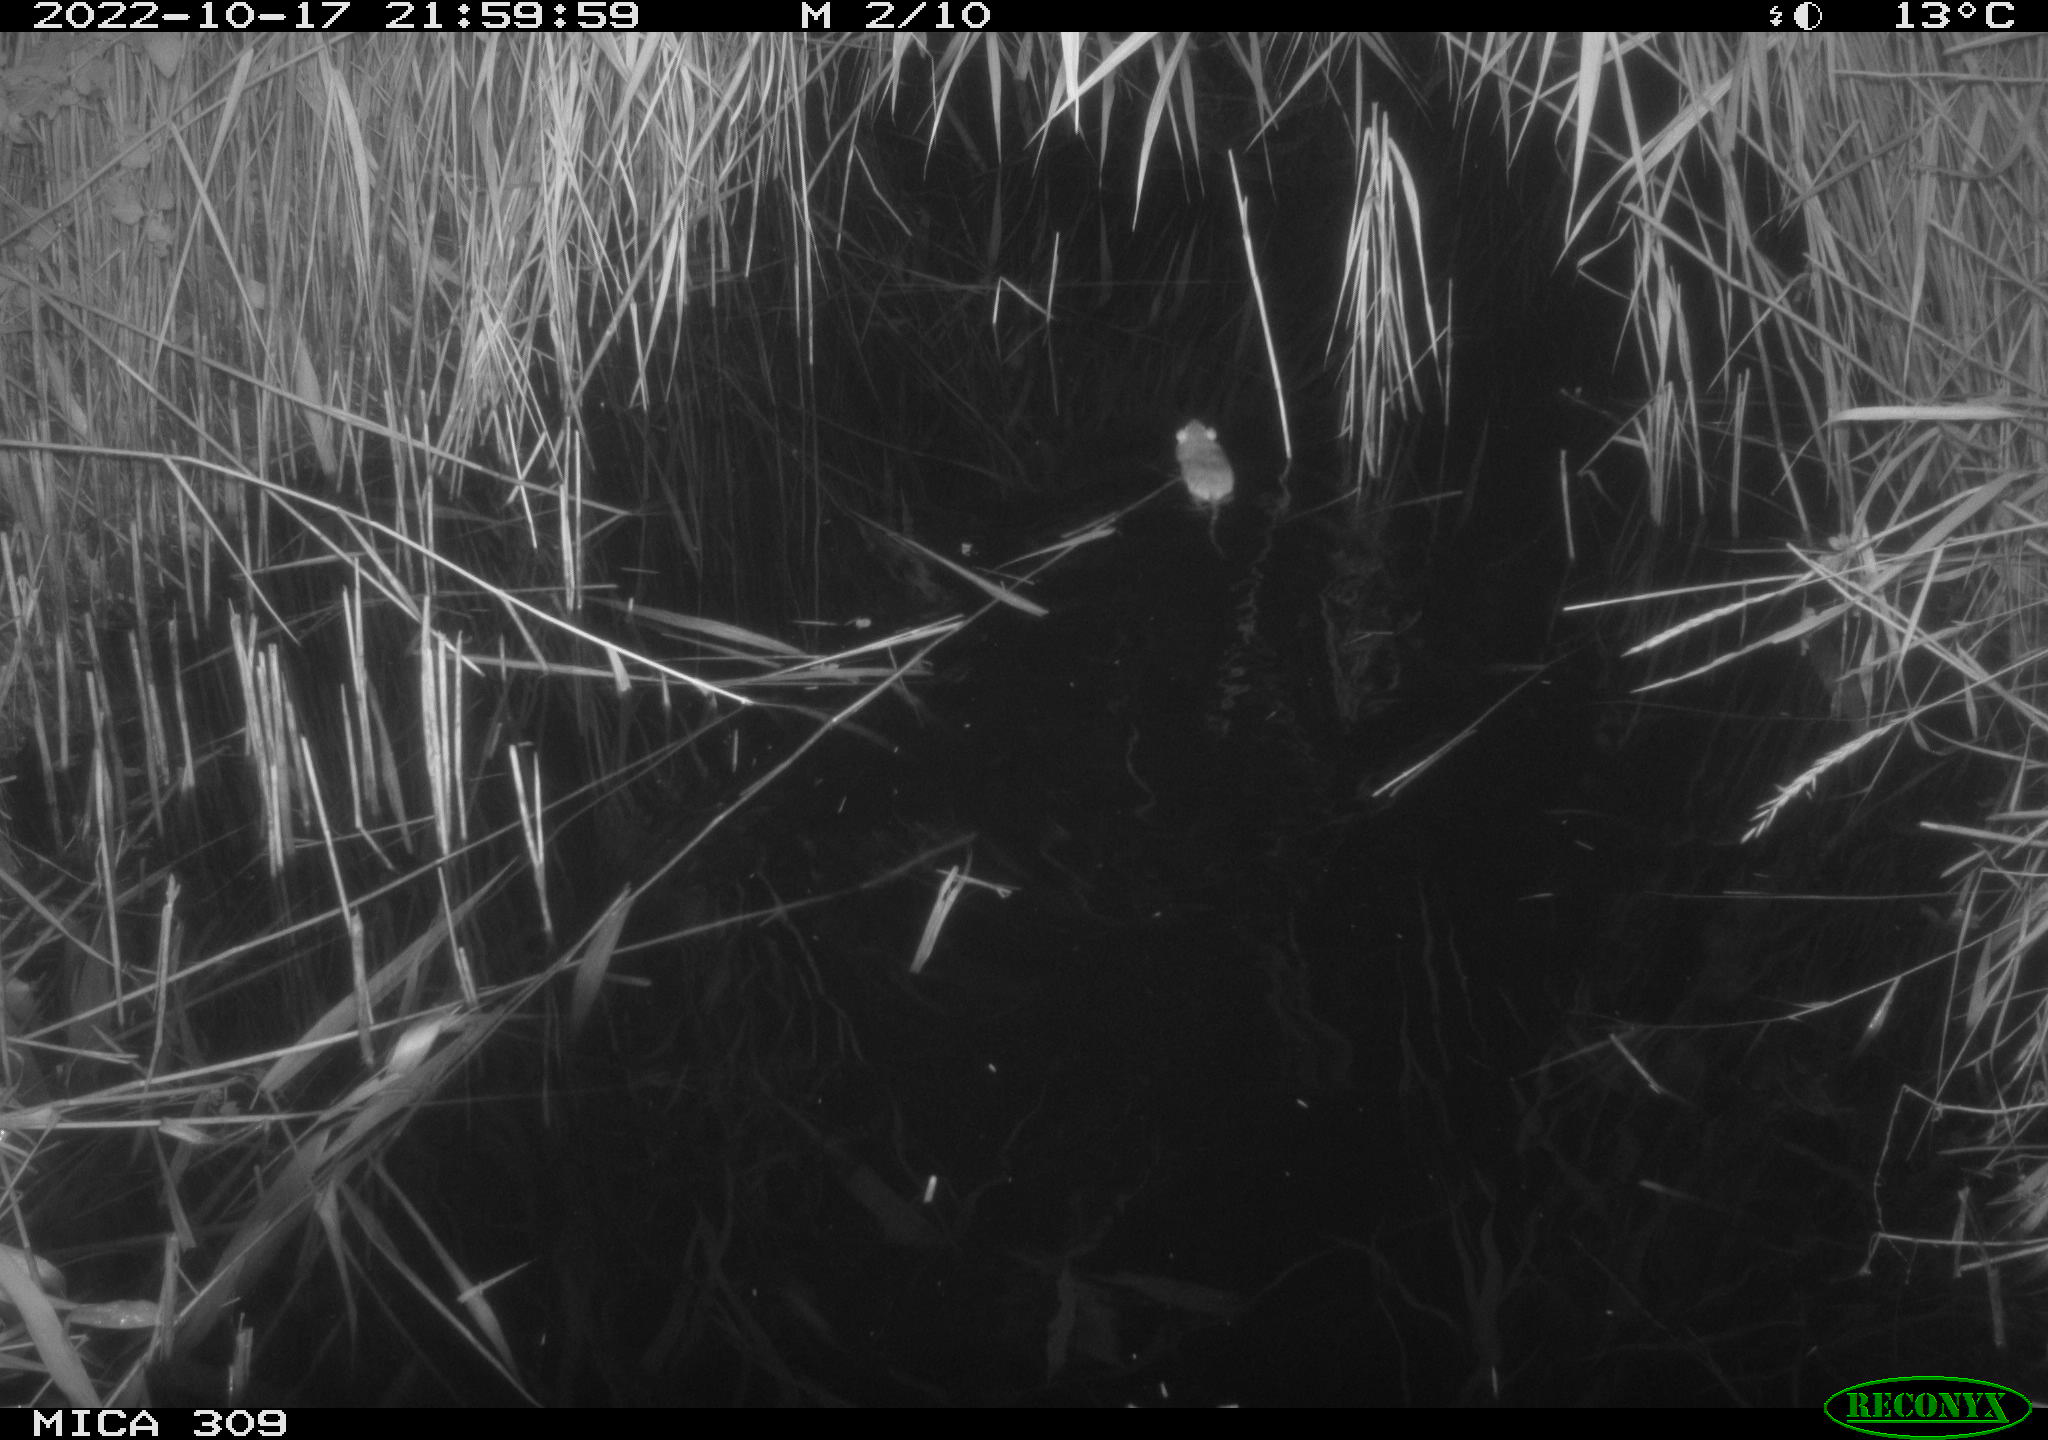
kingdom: Animalia
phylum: Chordata
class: Mammalia
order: Rodentia
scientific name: Rodentia
